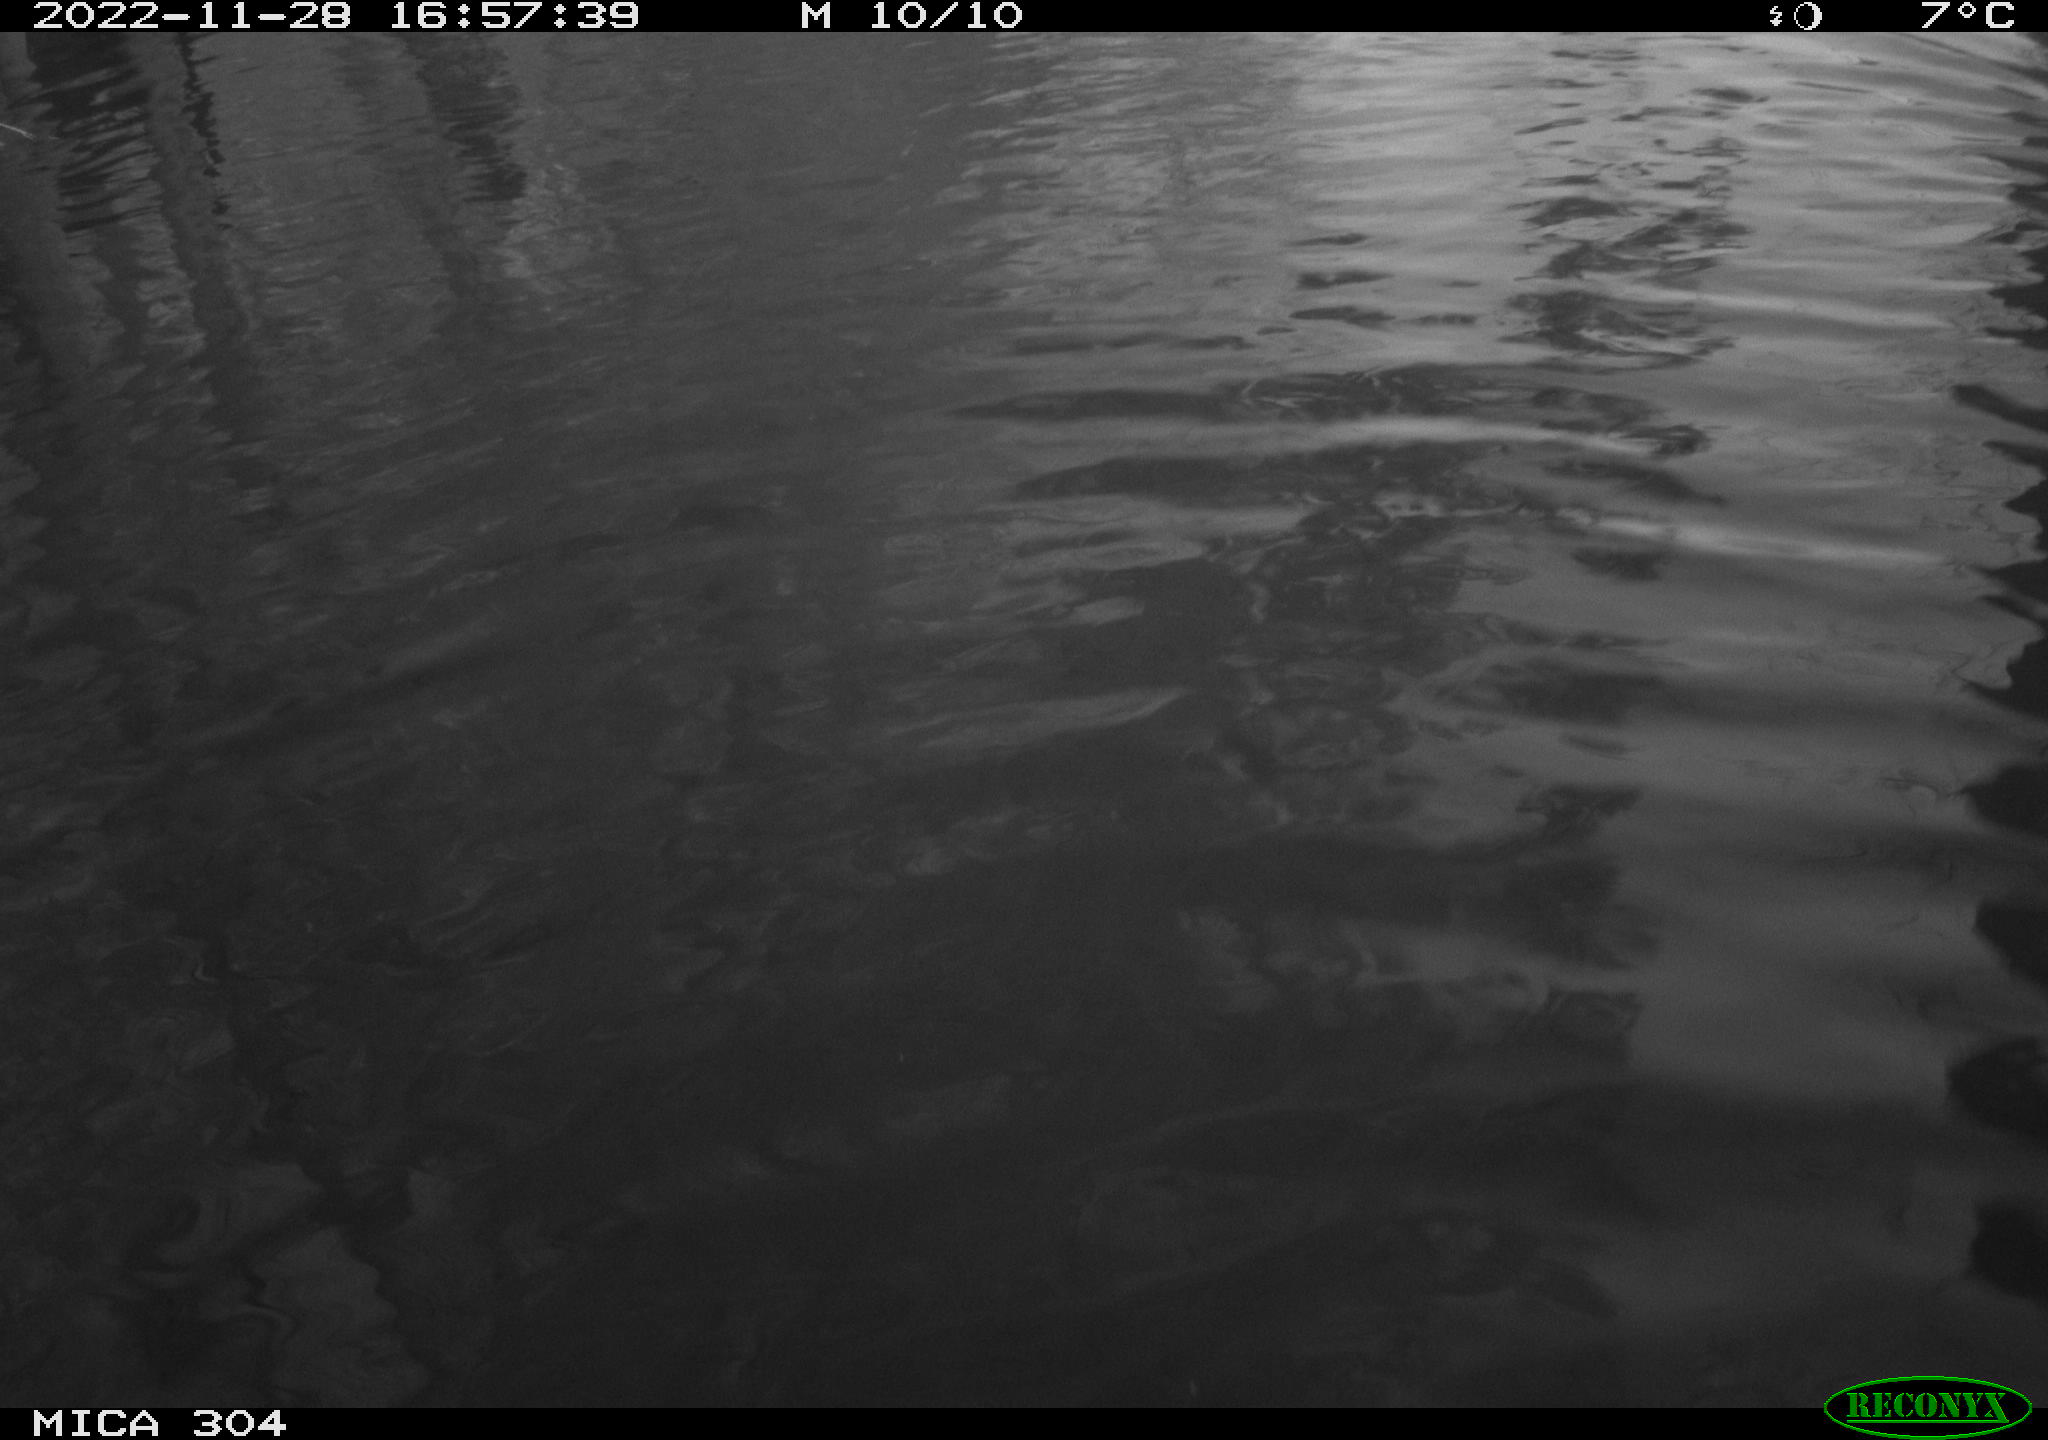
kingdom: Animalia
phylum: Chordata
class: Mammalia
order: Rodentia
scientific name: Rodentia
